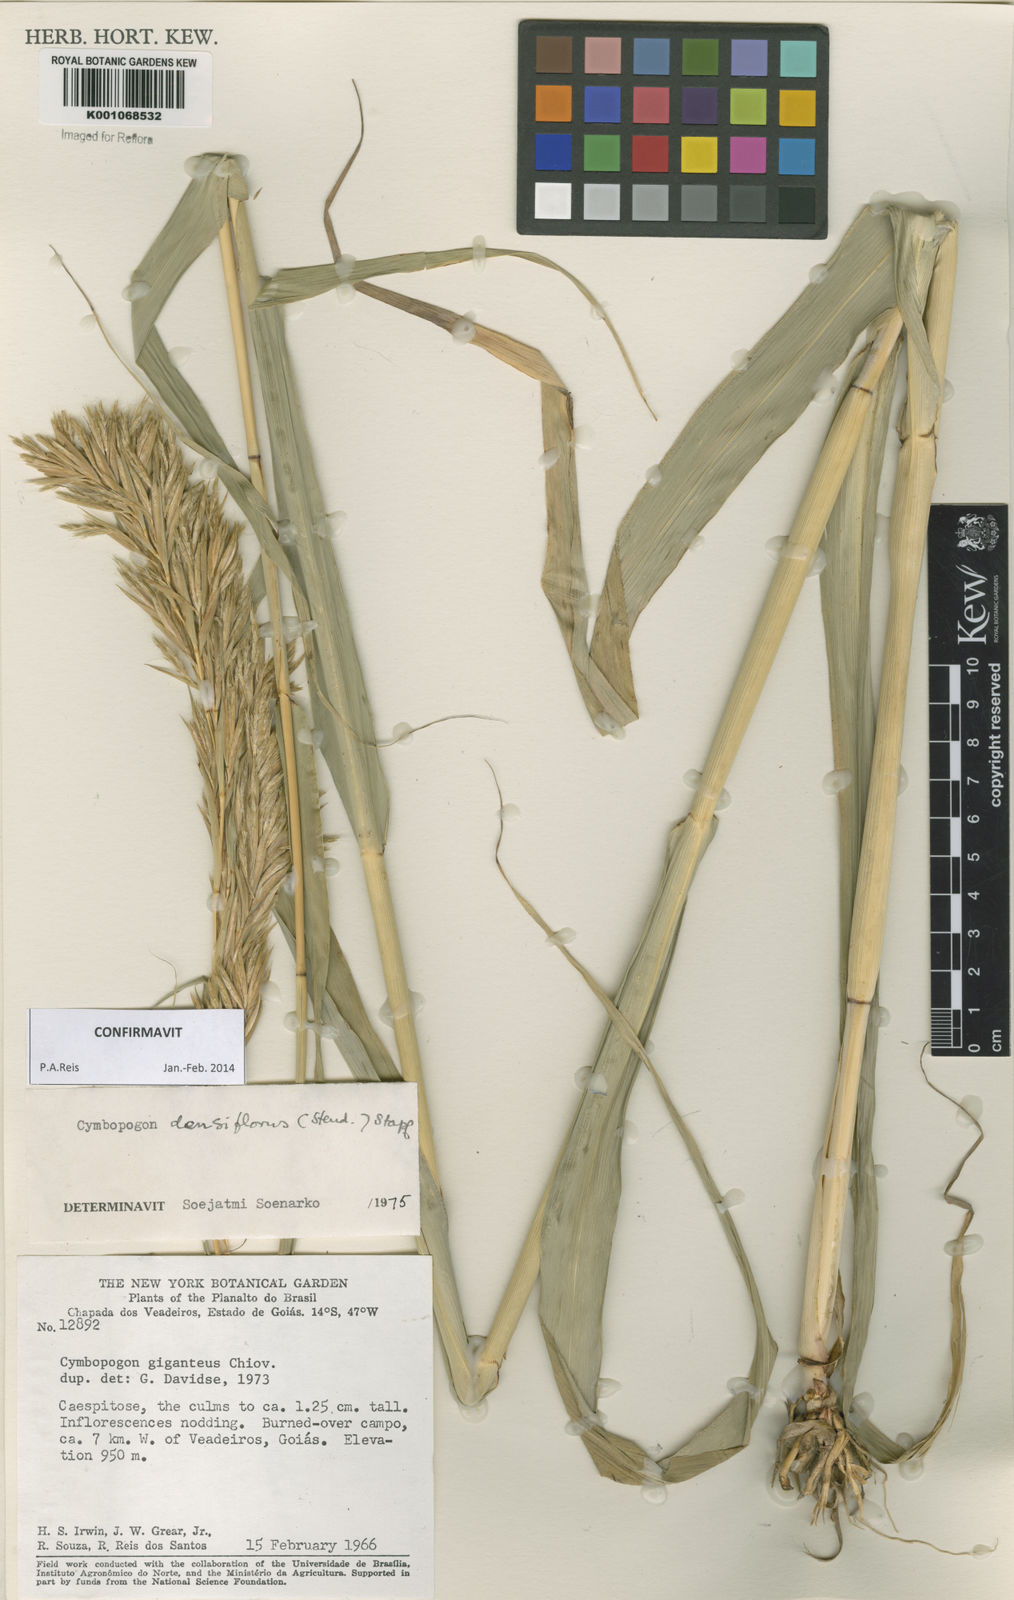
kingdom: Plantae
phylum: Tracheophyta
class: Liliopsida
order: Poales
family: Poaceae
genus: Cymbopogon
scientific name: Cymbopogon densiflorus
